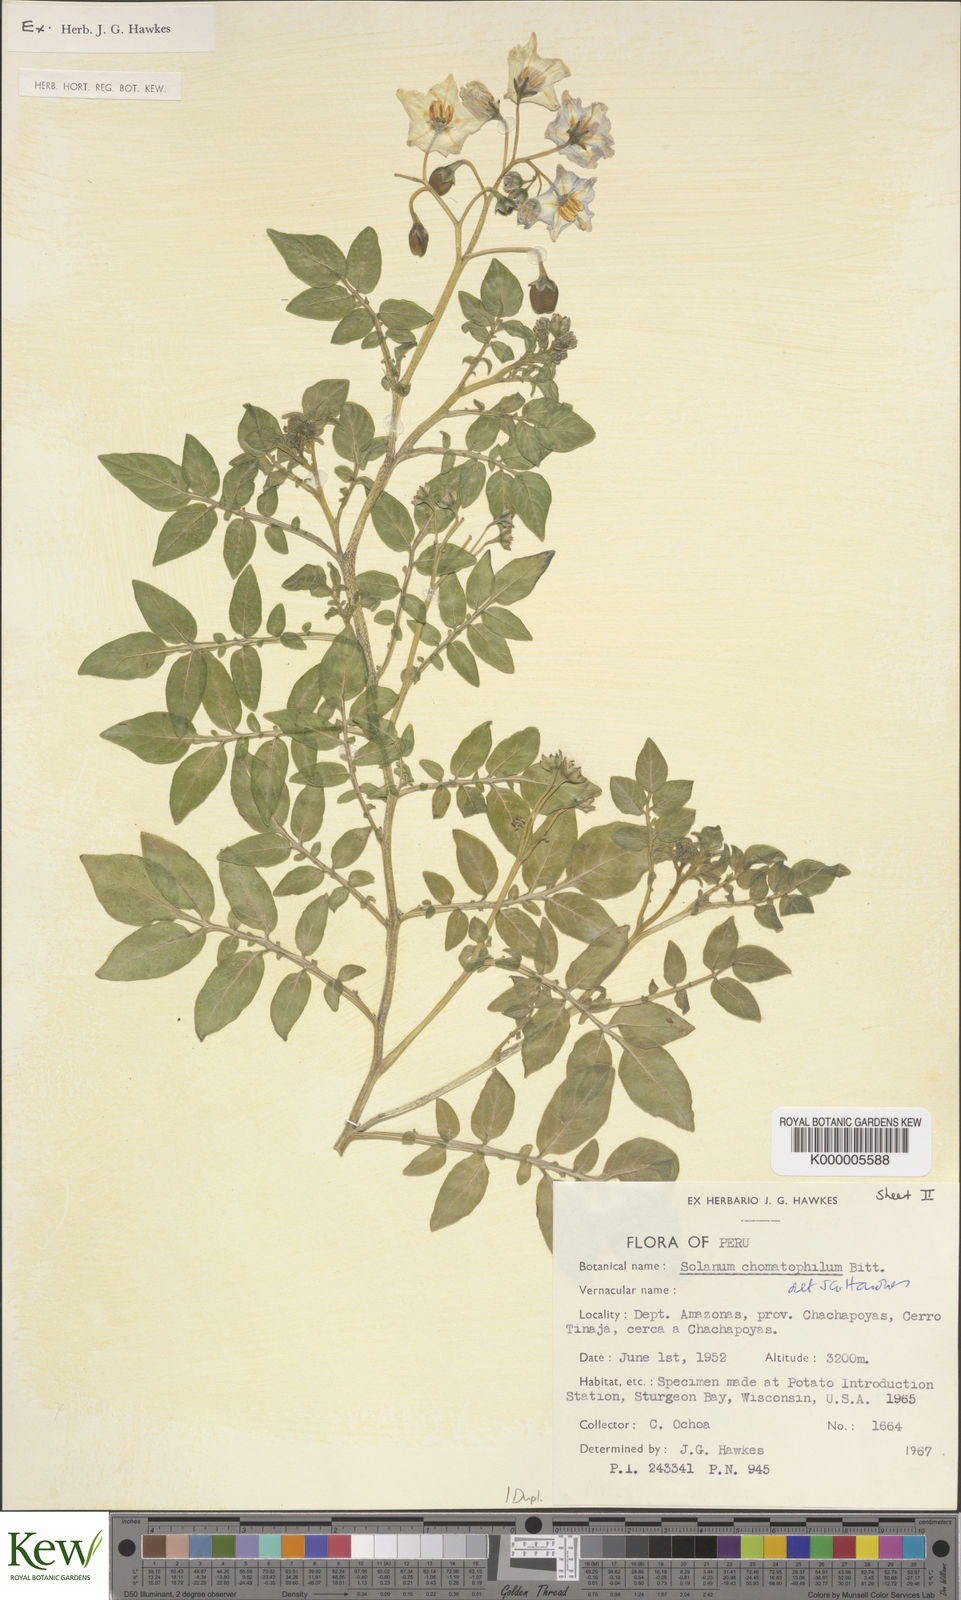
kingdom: Plantae
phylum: Tracheophyta
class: Magnoliopsida
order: Solanales
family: Solanaceae
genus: Solanum
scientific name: Solanum chomatophilum
